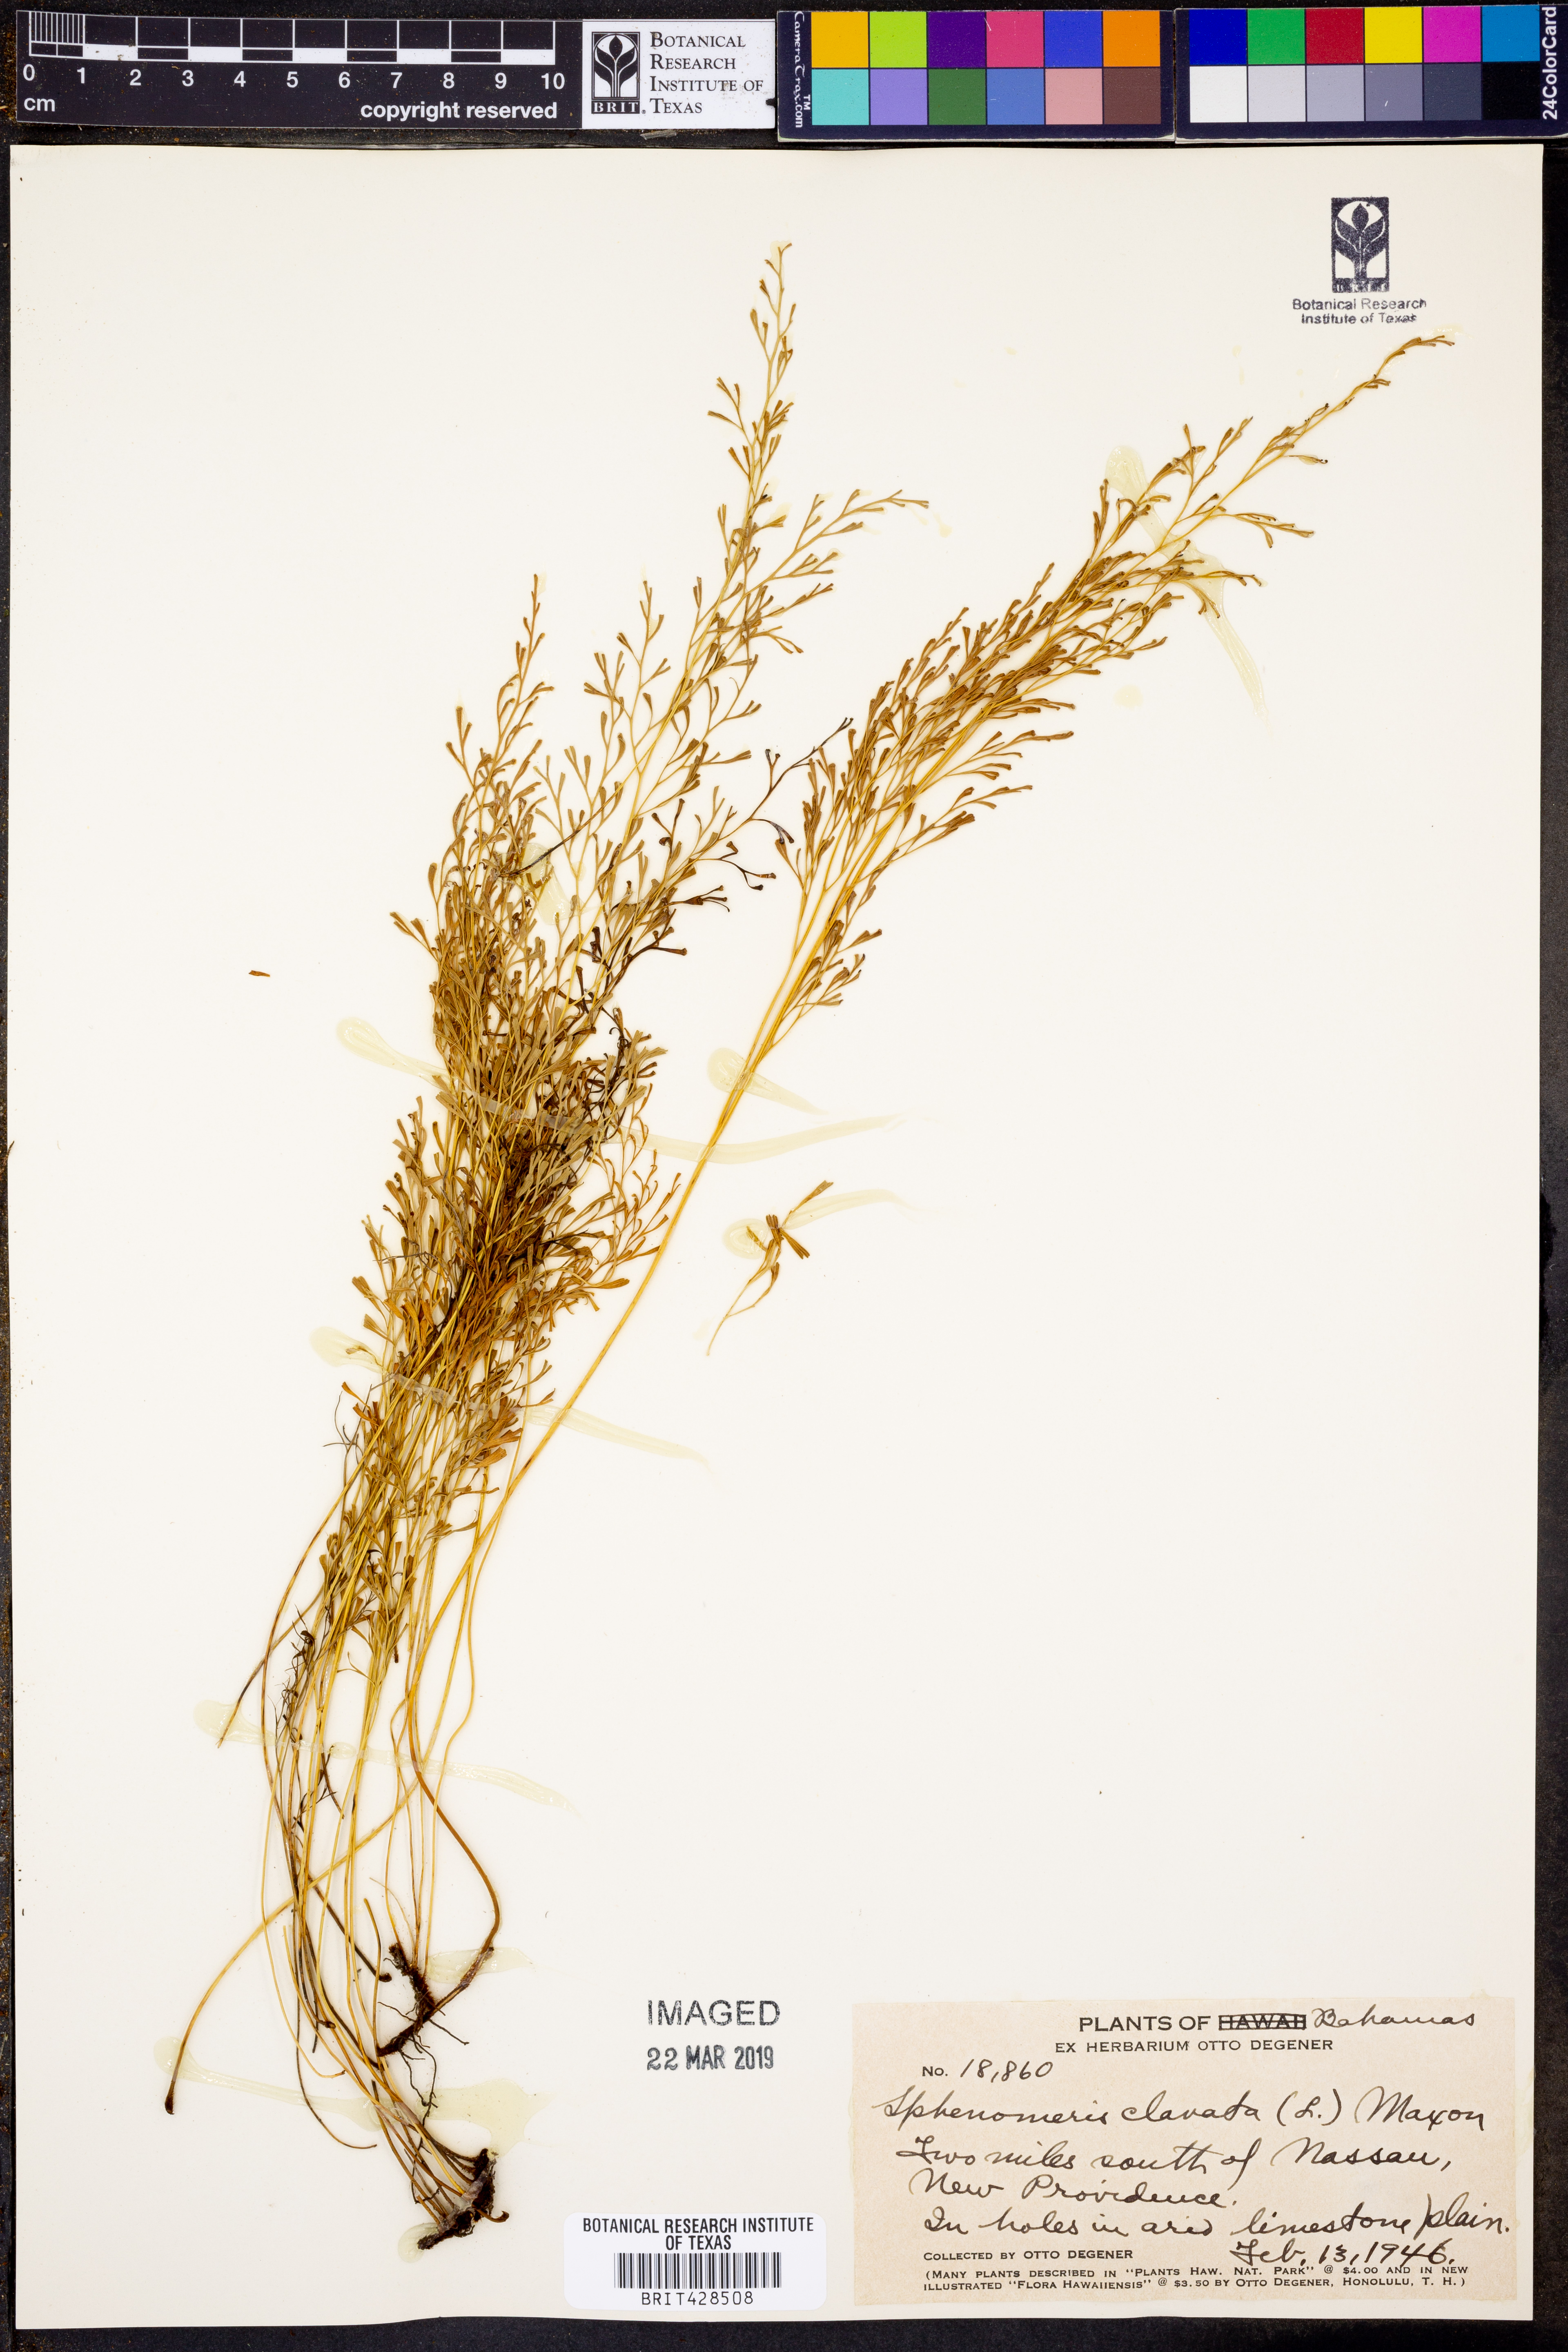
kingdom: Plantae
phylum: Tracheophyta
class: Polypodiopsida
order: Polypodiales
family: Lindsaeaceae
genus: Sphenomeris
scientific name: Sphenomeris clavata
